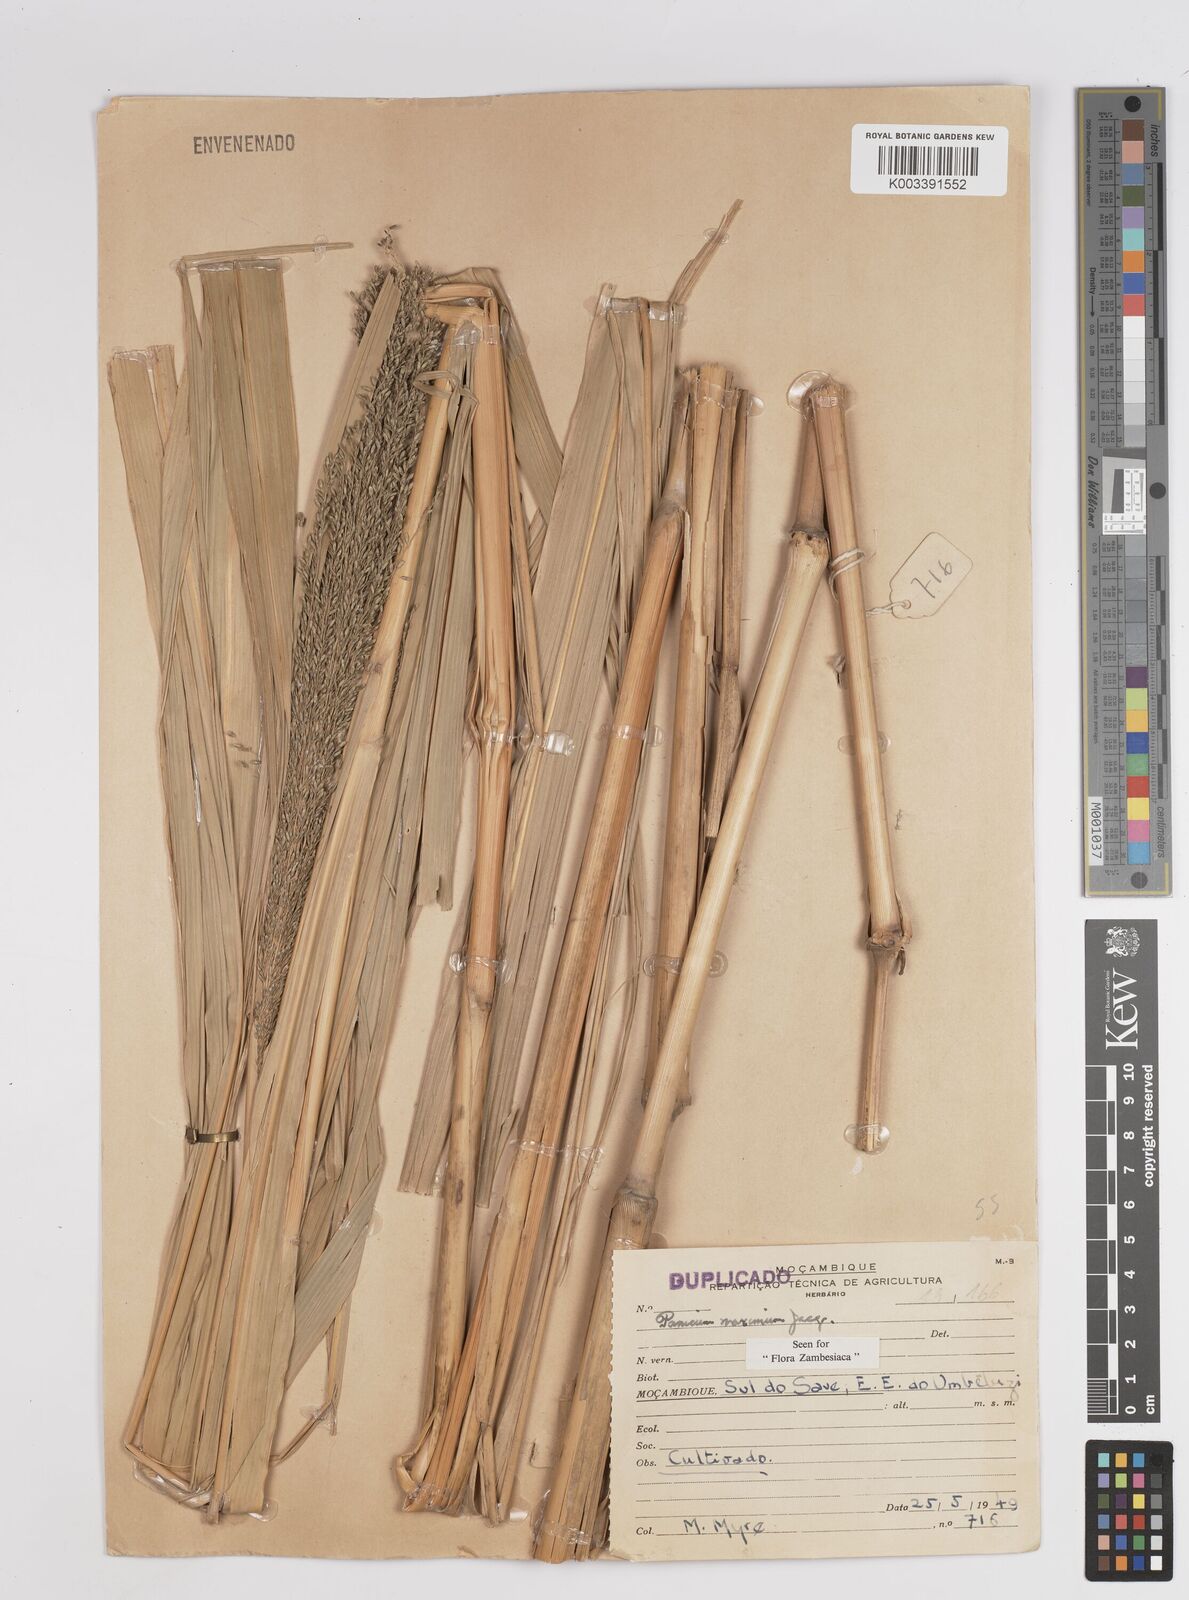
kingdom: Plantae
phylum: Tracheophyta
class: Liliopsida
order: Poales
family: Poaceae
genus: Megathyrsus
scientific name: Megathyrsus maximus
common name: Guineagrass
